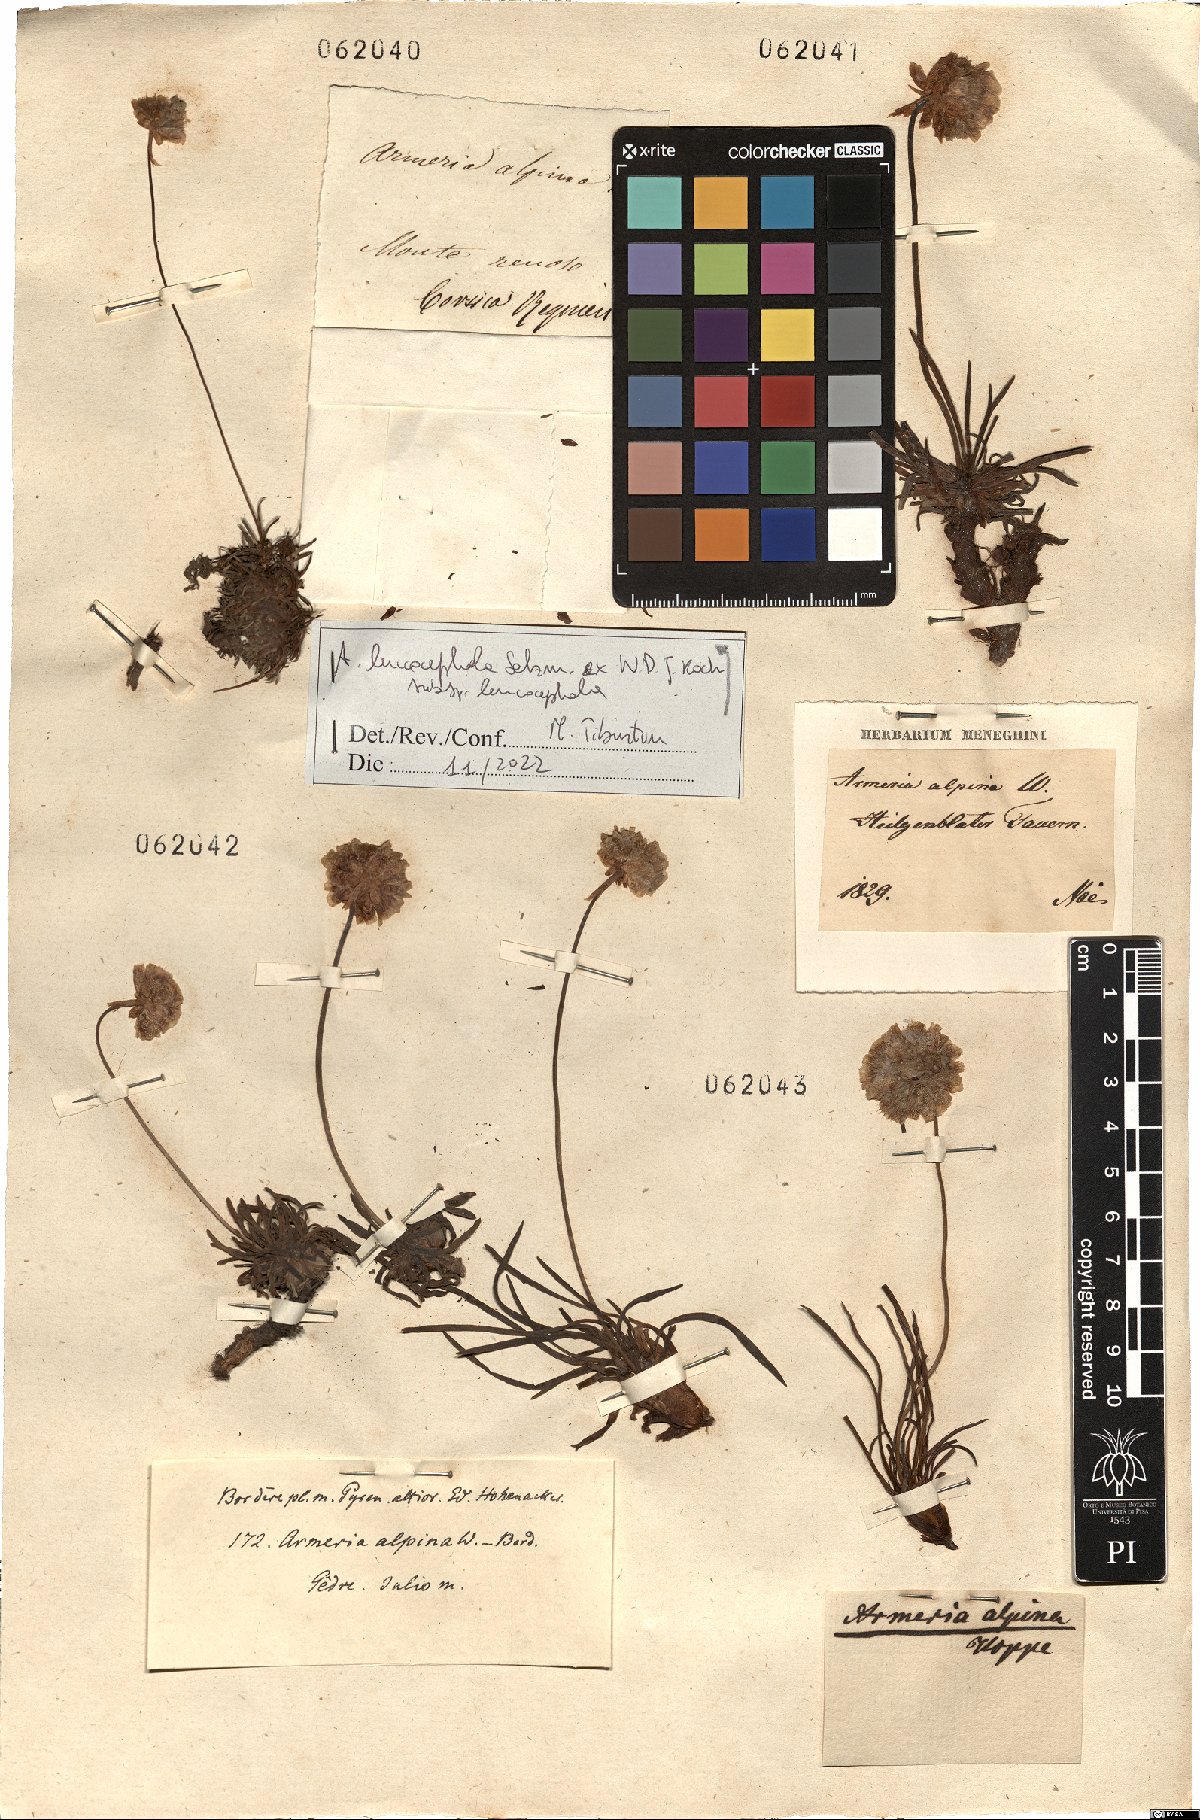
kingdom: Plantae
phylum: Tracheophyta
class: Magnoliopsida
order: Caryophyllales
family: Plumbaginaceae
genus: Armeria
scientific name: Armeria alpina
